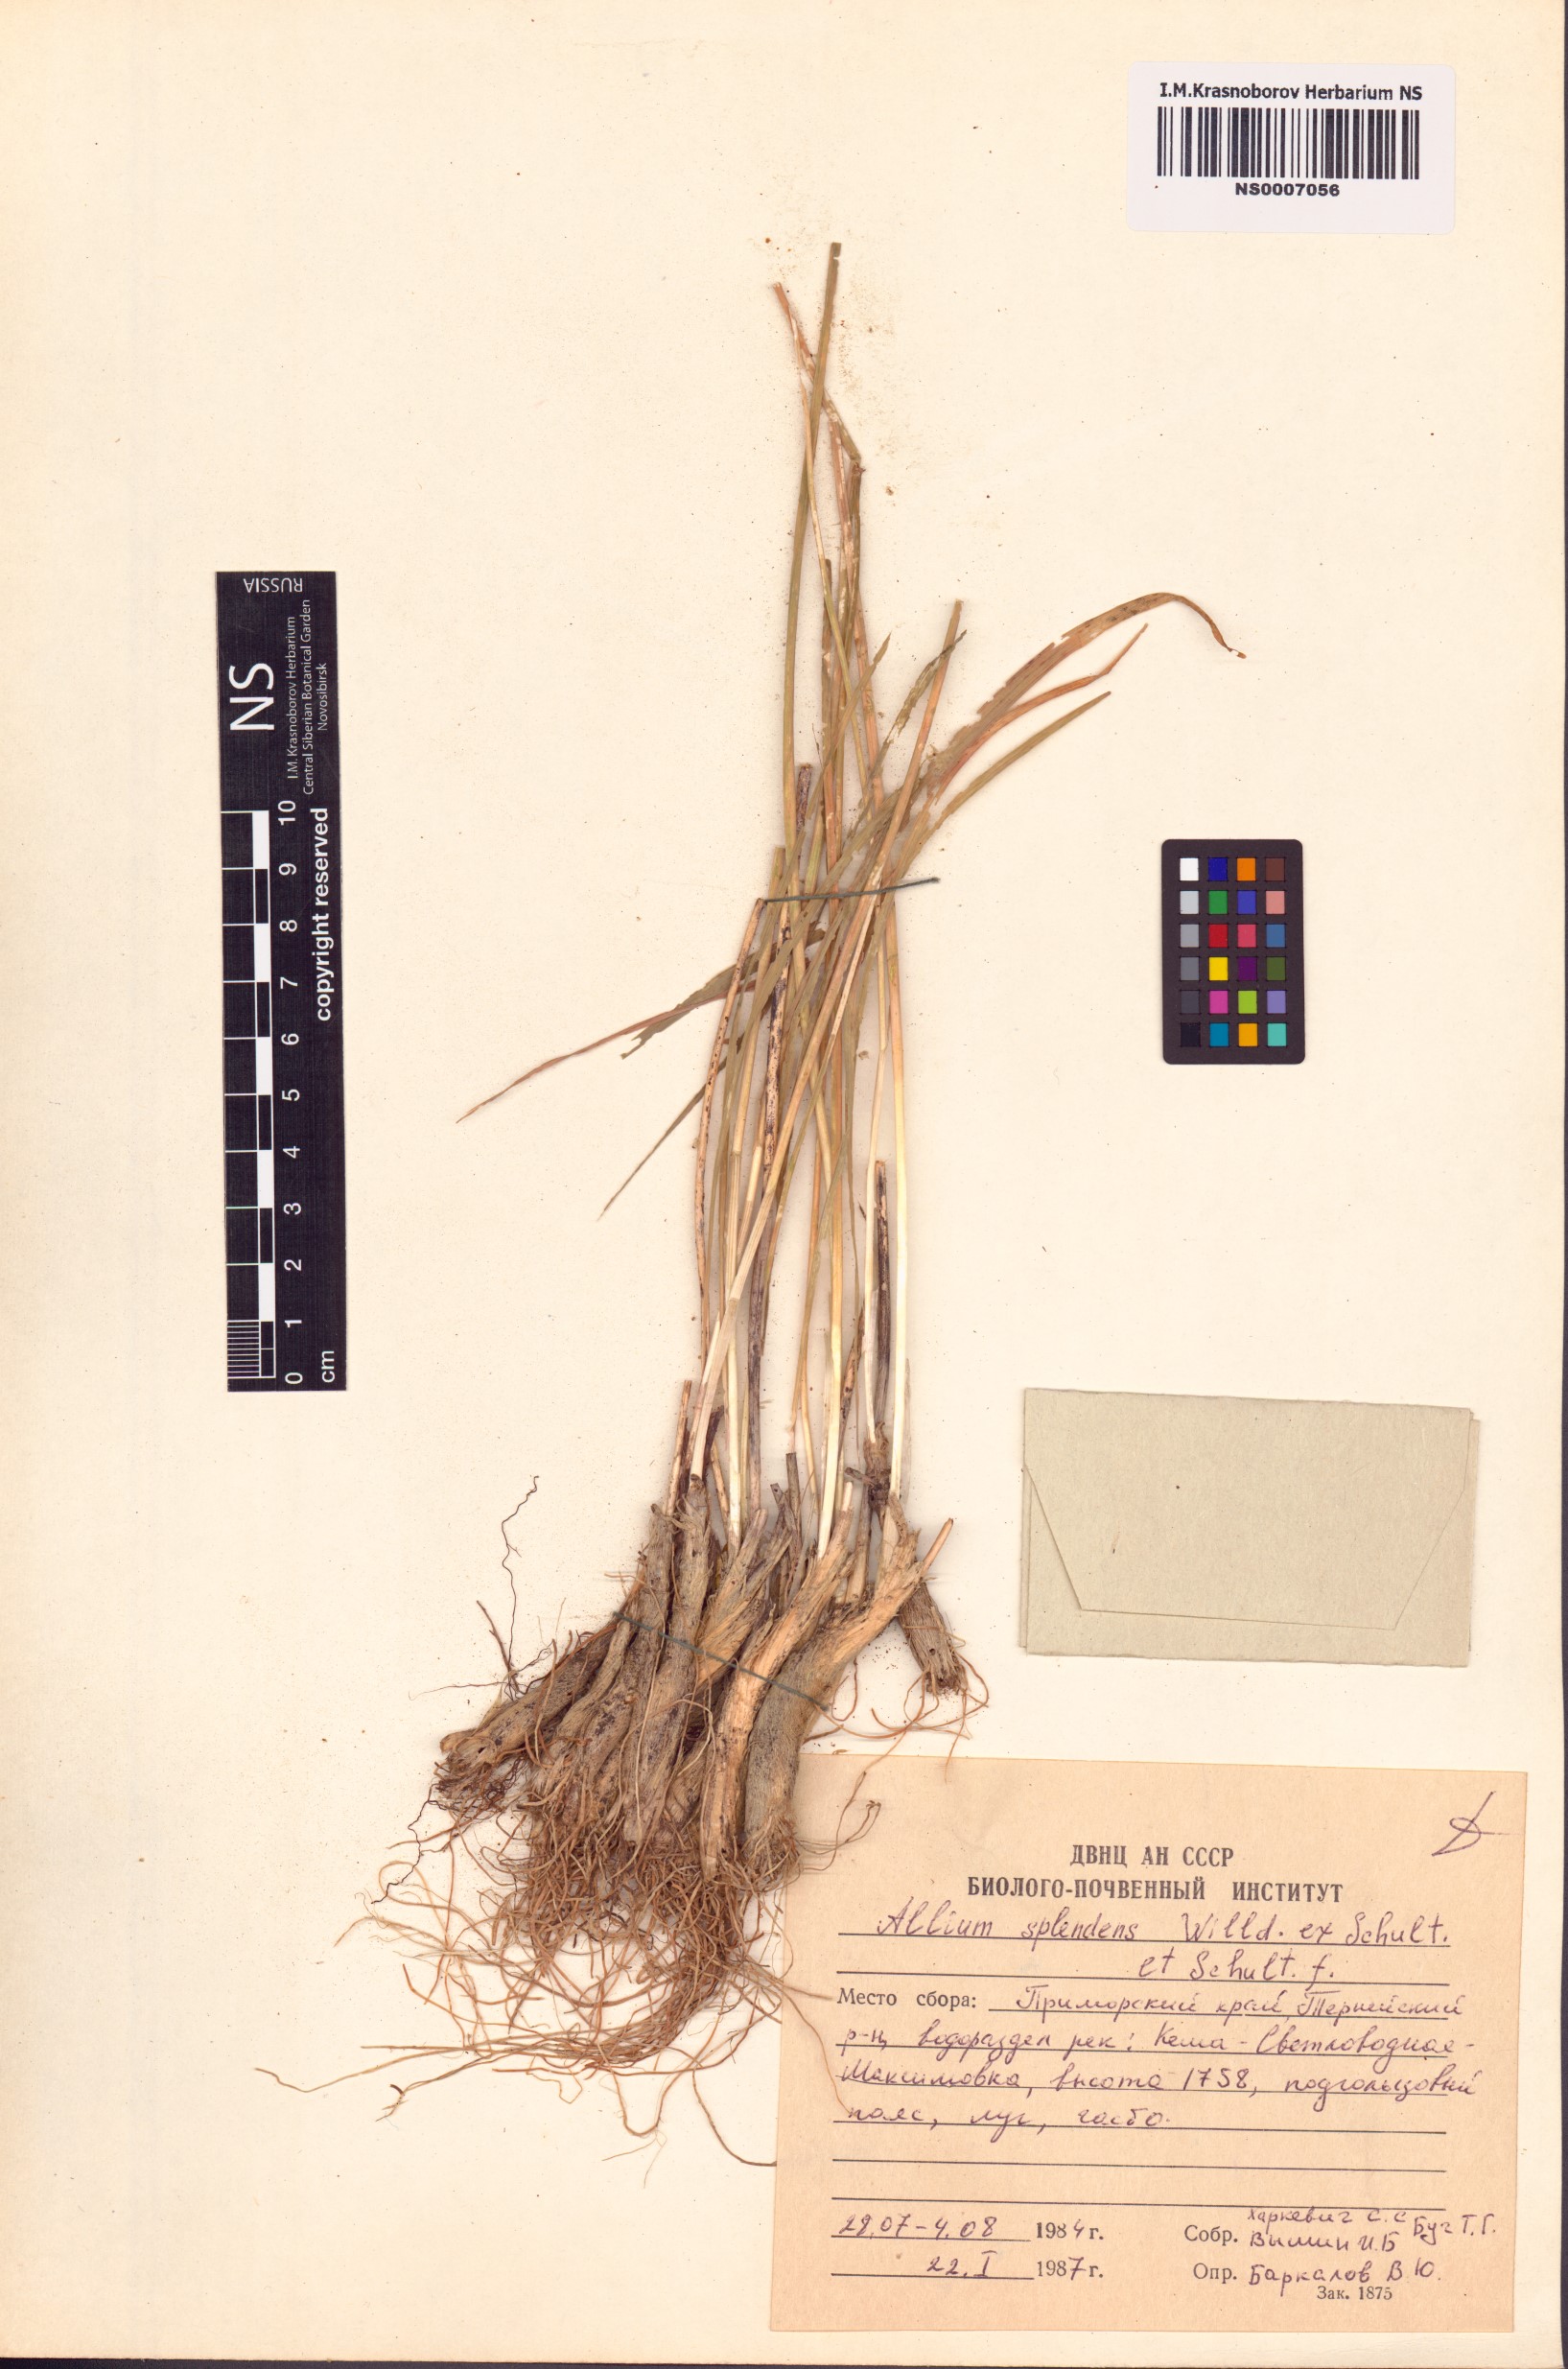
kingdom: Plantae
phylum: Tracheophyta
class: Liliopsida
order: Asparagales
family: Amaryllidaceae
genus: Allium
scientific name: Allium splendens
